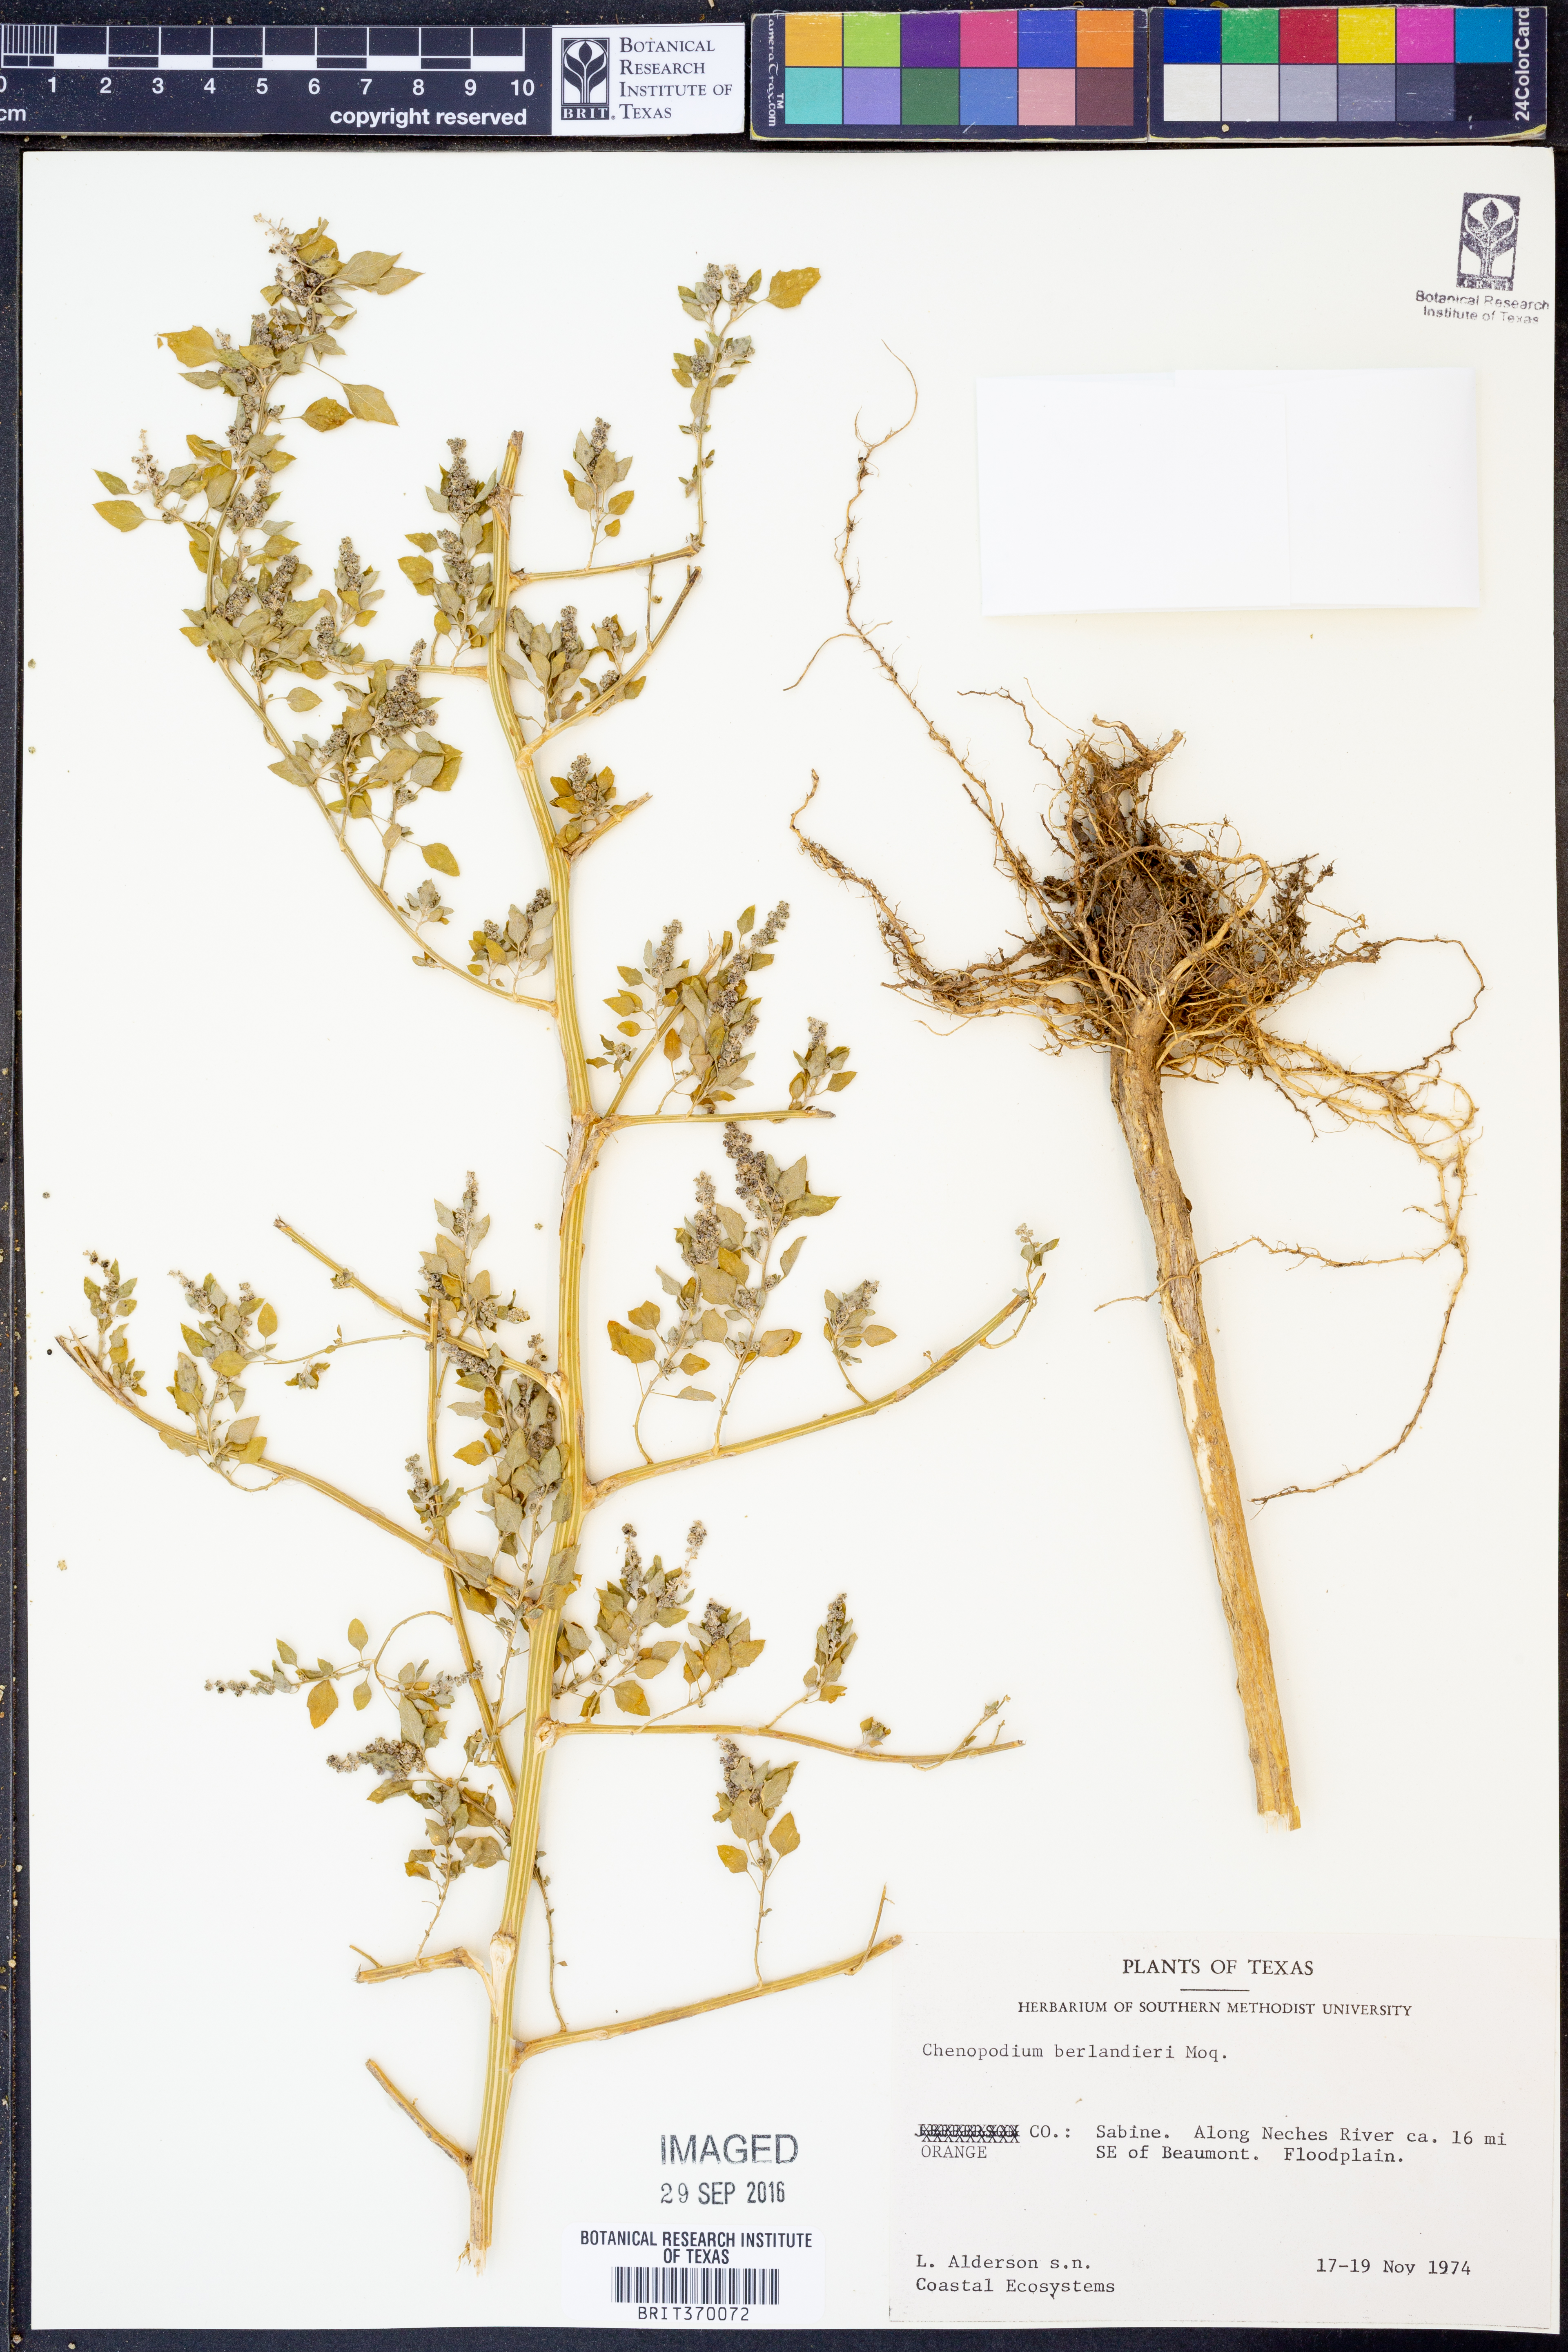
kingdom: Plantae
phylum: Tracheophyta
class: Magnoliopsida
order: Caryophyllales
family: Amaranthaceae
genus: Chenopodium
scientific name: Chenopodium berlandieri
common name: Pit-seed goosefoot
